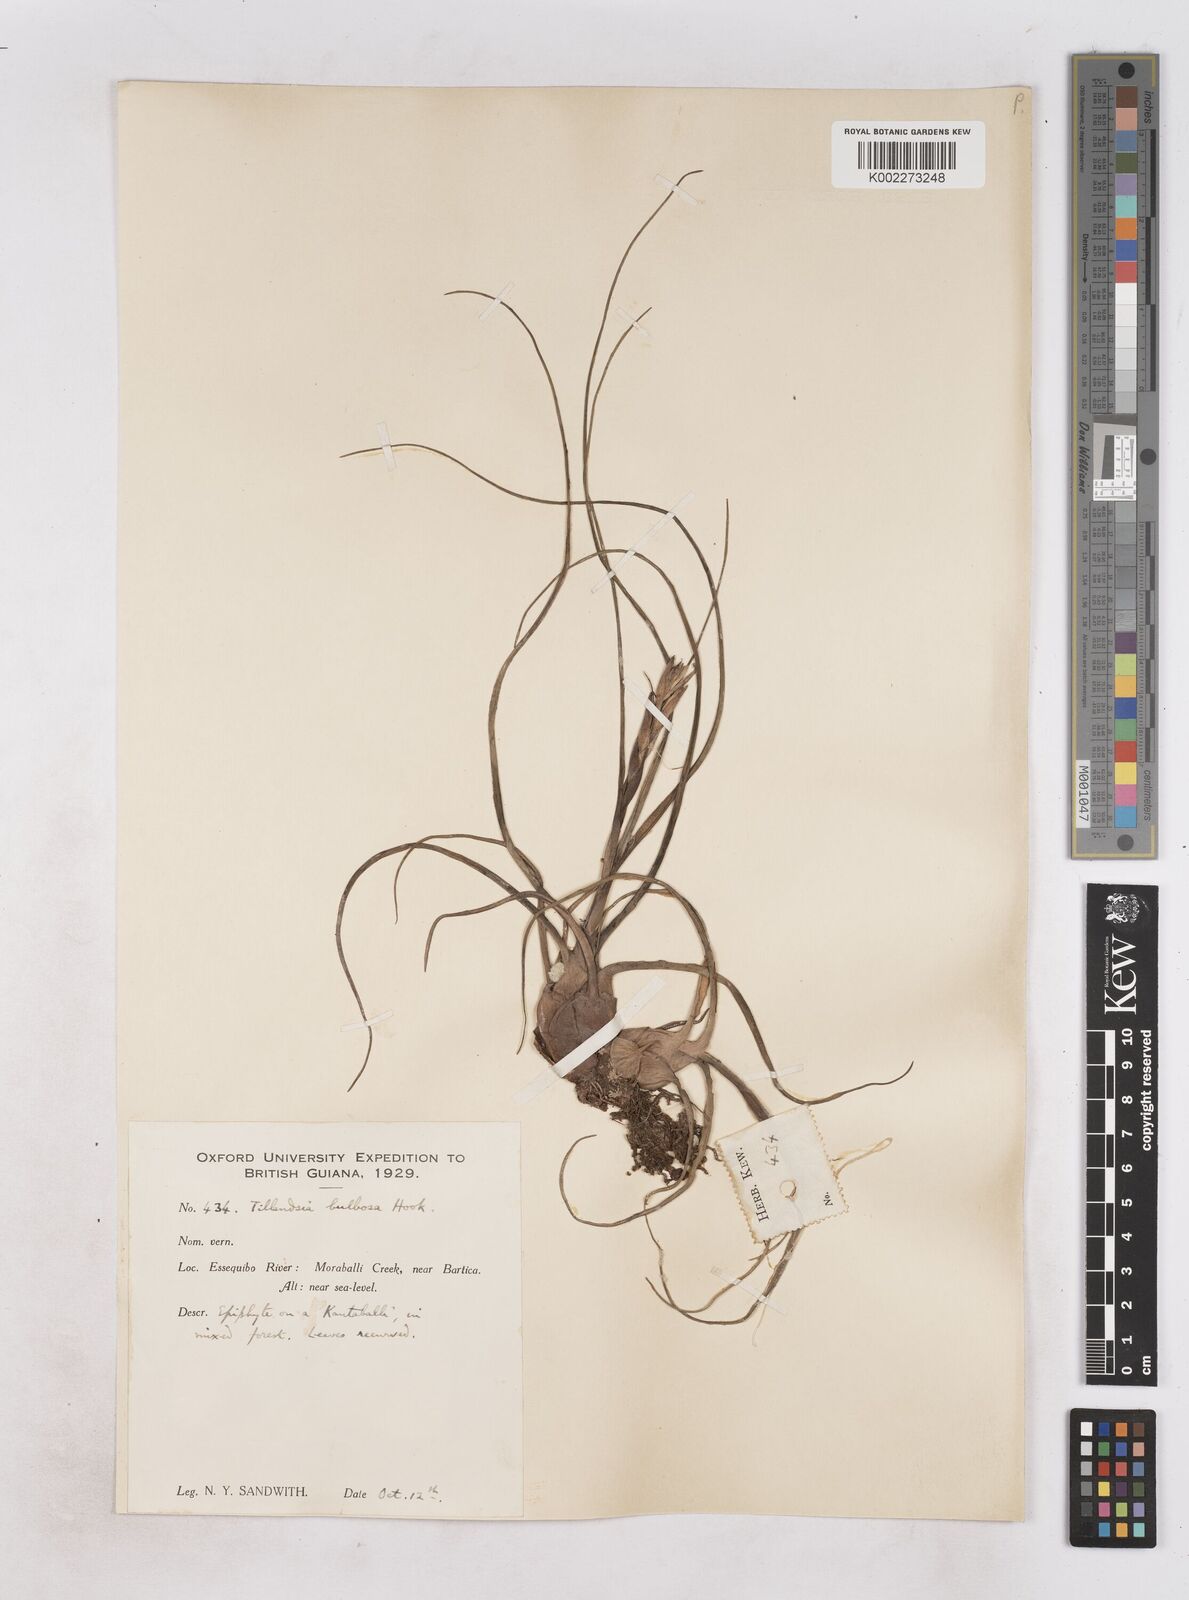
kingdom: Plantae
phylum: Tracheophyta
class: Liliopsida
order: Poales
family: Bromeliaceae
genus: Tillandsia
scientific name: Tillandsia bulbosa
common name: Bulbous airplant
